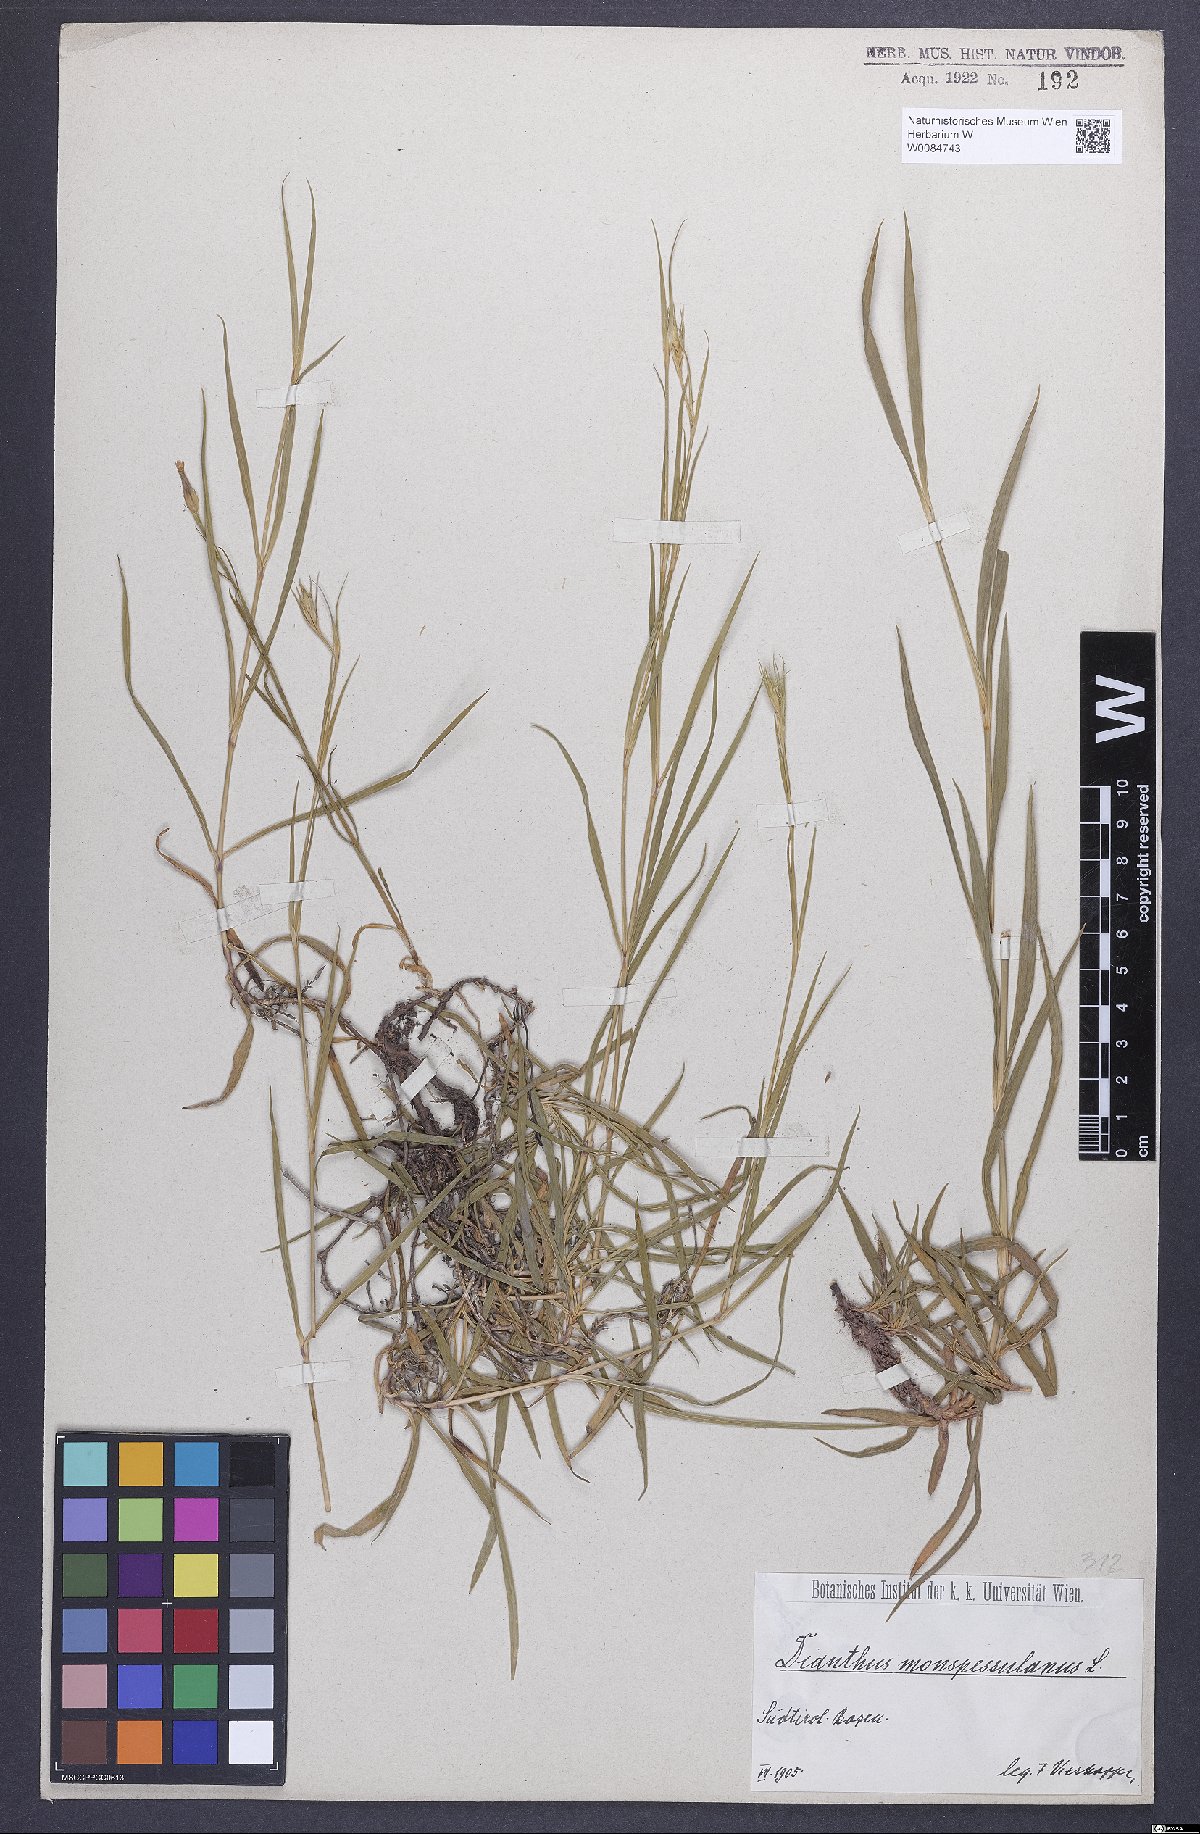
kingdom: Plantae
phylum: Tracheophyta
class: Magnoliopsida
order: Caryophyllales
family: Caryophyllaceae
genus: Dianthus
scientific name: Dianthus hyssopifolius
